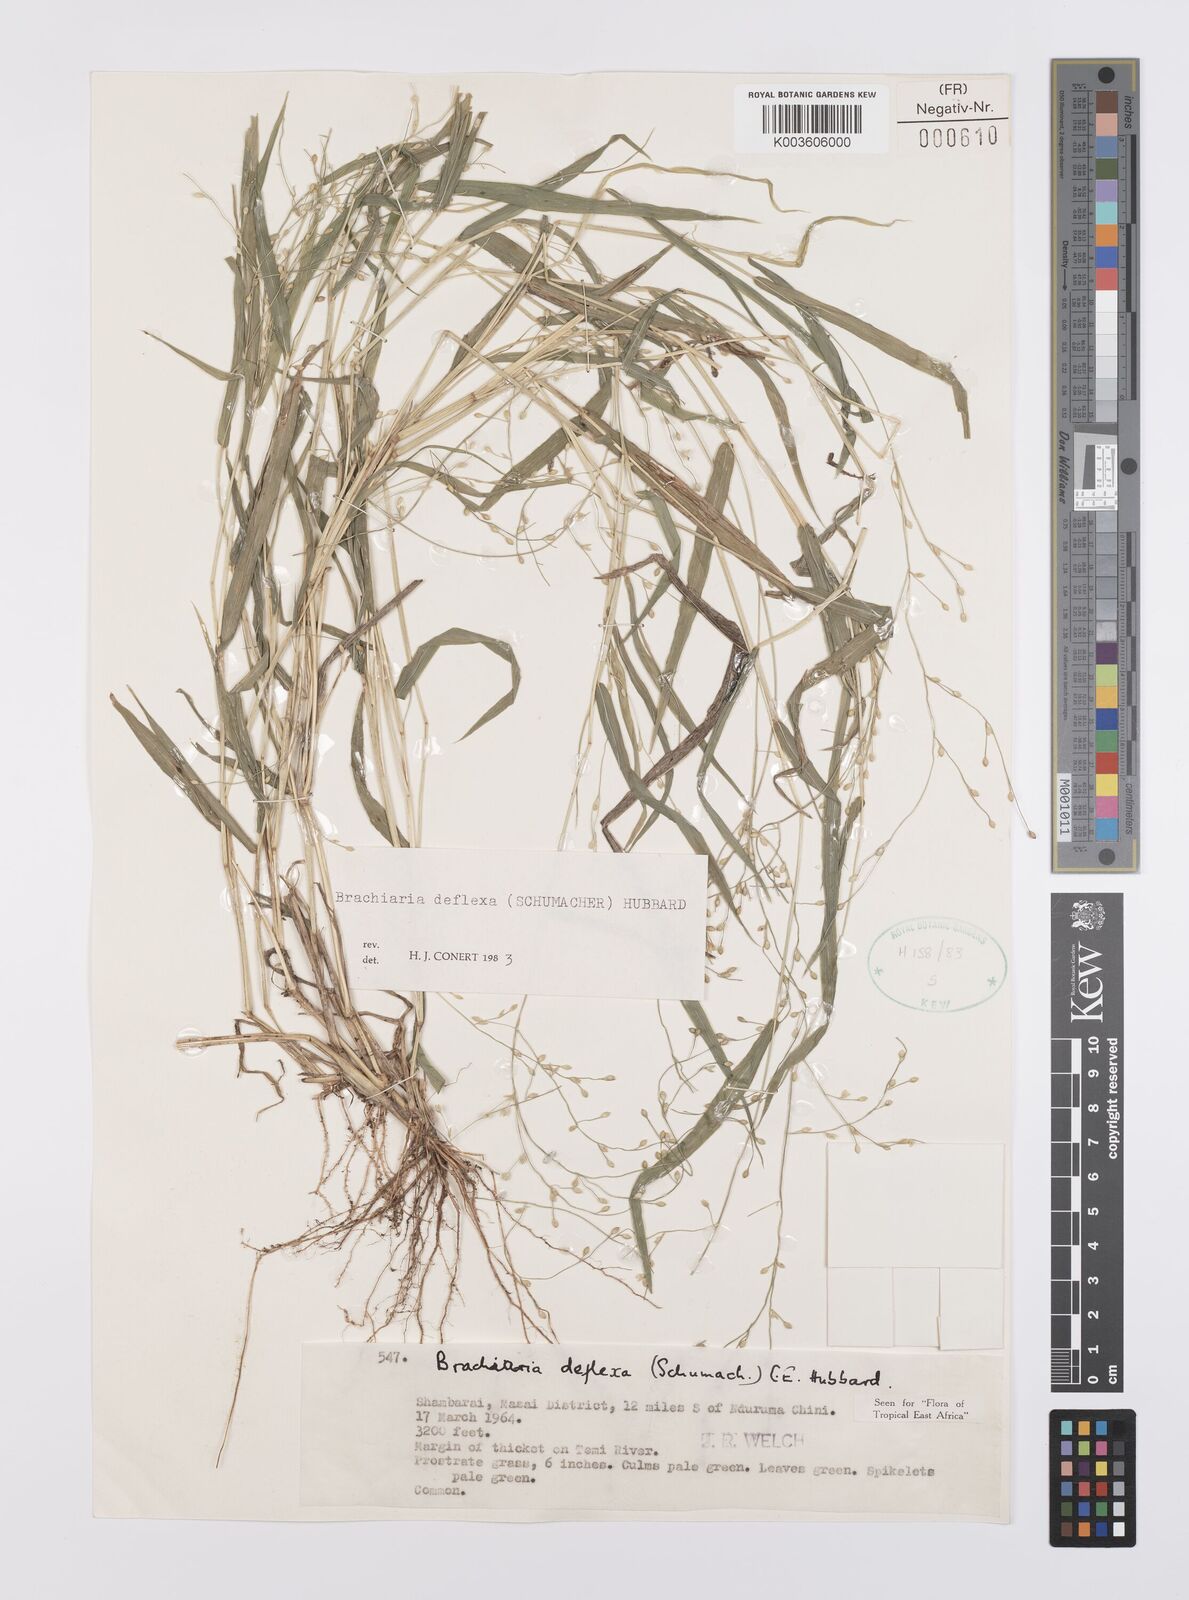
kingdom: Plantae
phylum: Tracheophyta
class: Liliopsida
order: Poales
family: Poaceae
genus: Urochloa
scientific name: Urochloa deflexa
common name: Guinea millet
